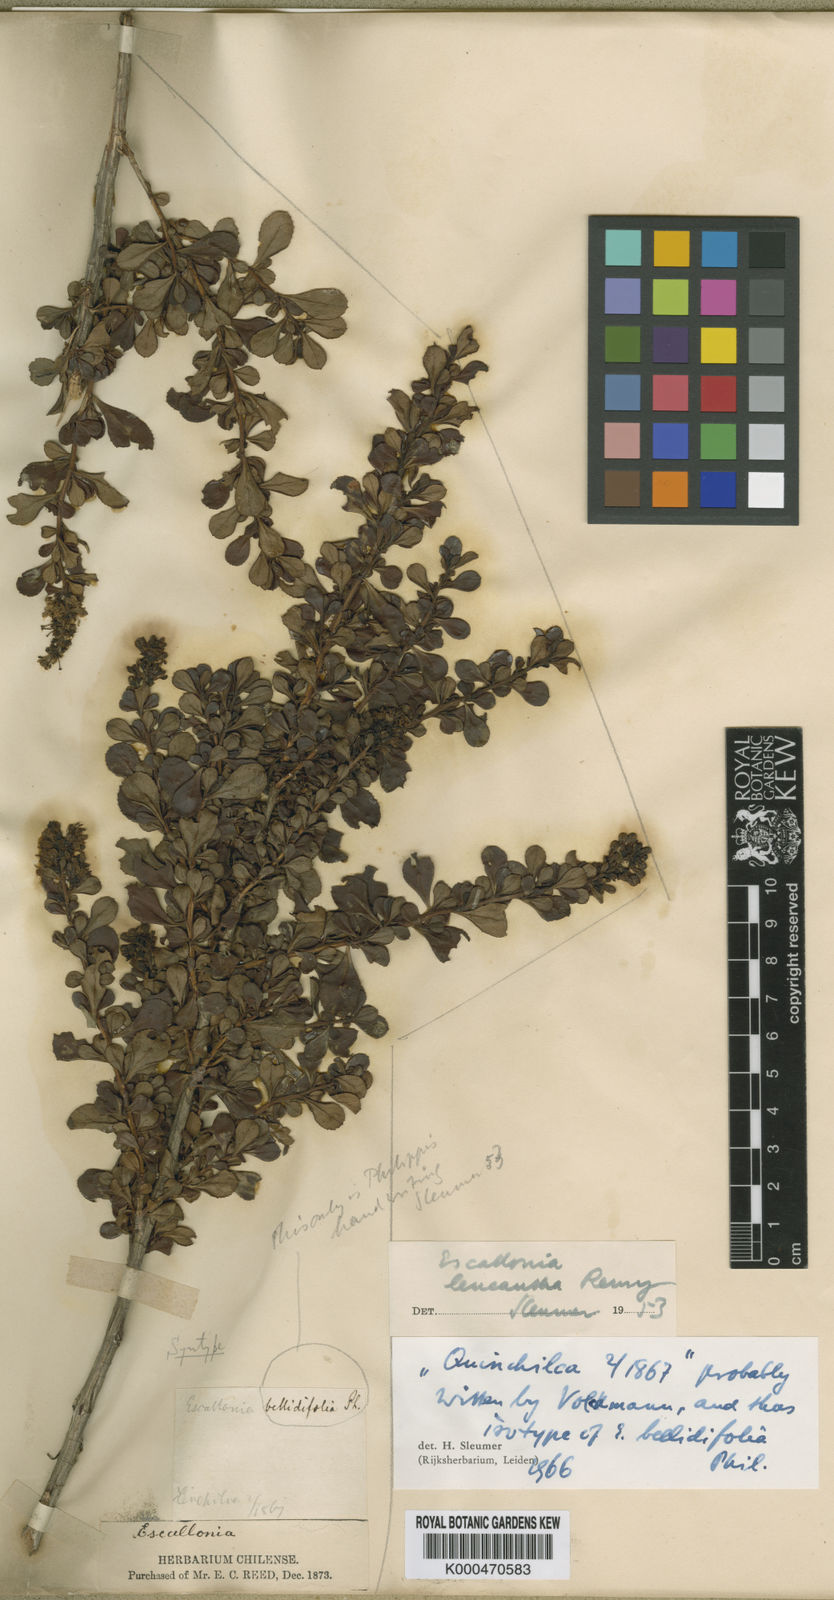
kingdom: Plantae
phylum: Tracheophyta
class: Magnoliopsida
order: Escalloniales
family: Escalloniaceae
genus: Escallonia
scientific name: Escallonia leucantha
